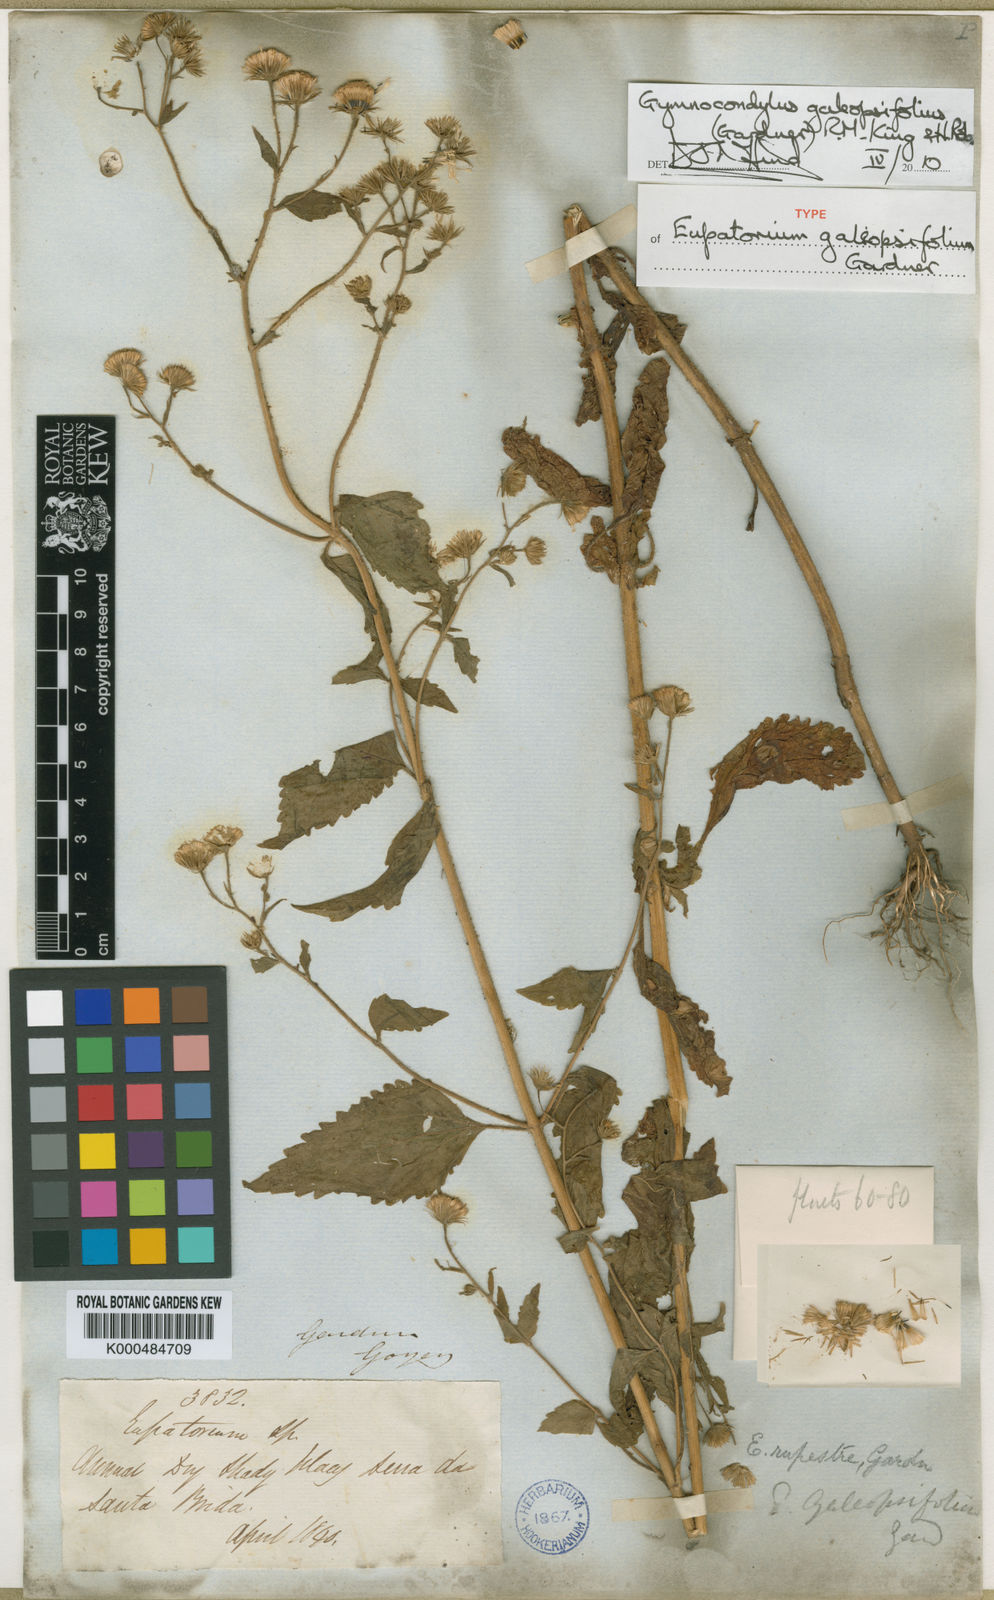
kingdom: Plantae
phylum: Tracheophyta
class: Magnoliopsida
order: Asterales
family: Asteraceae
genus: Gymnocondylus
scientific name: Gymnocondylus galeopsifolius
